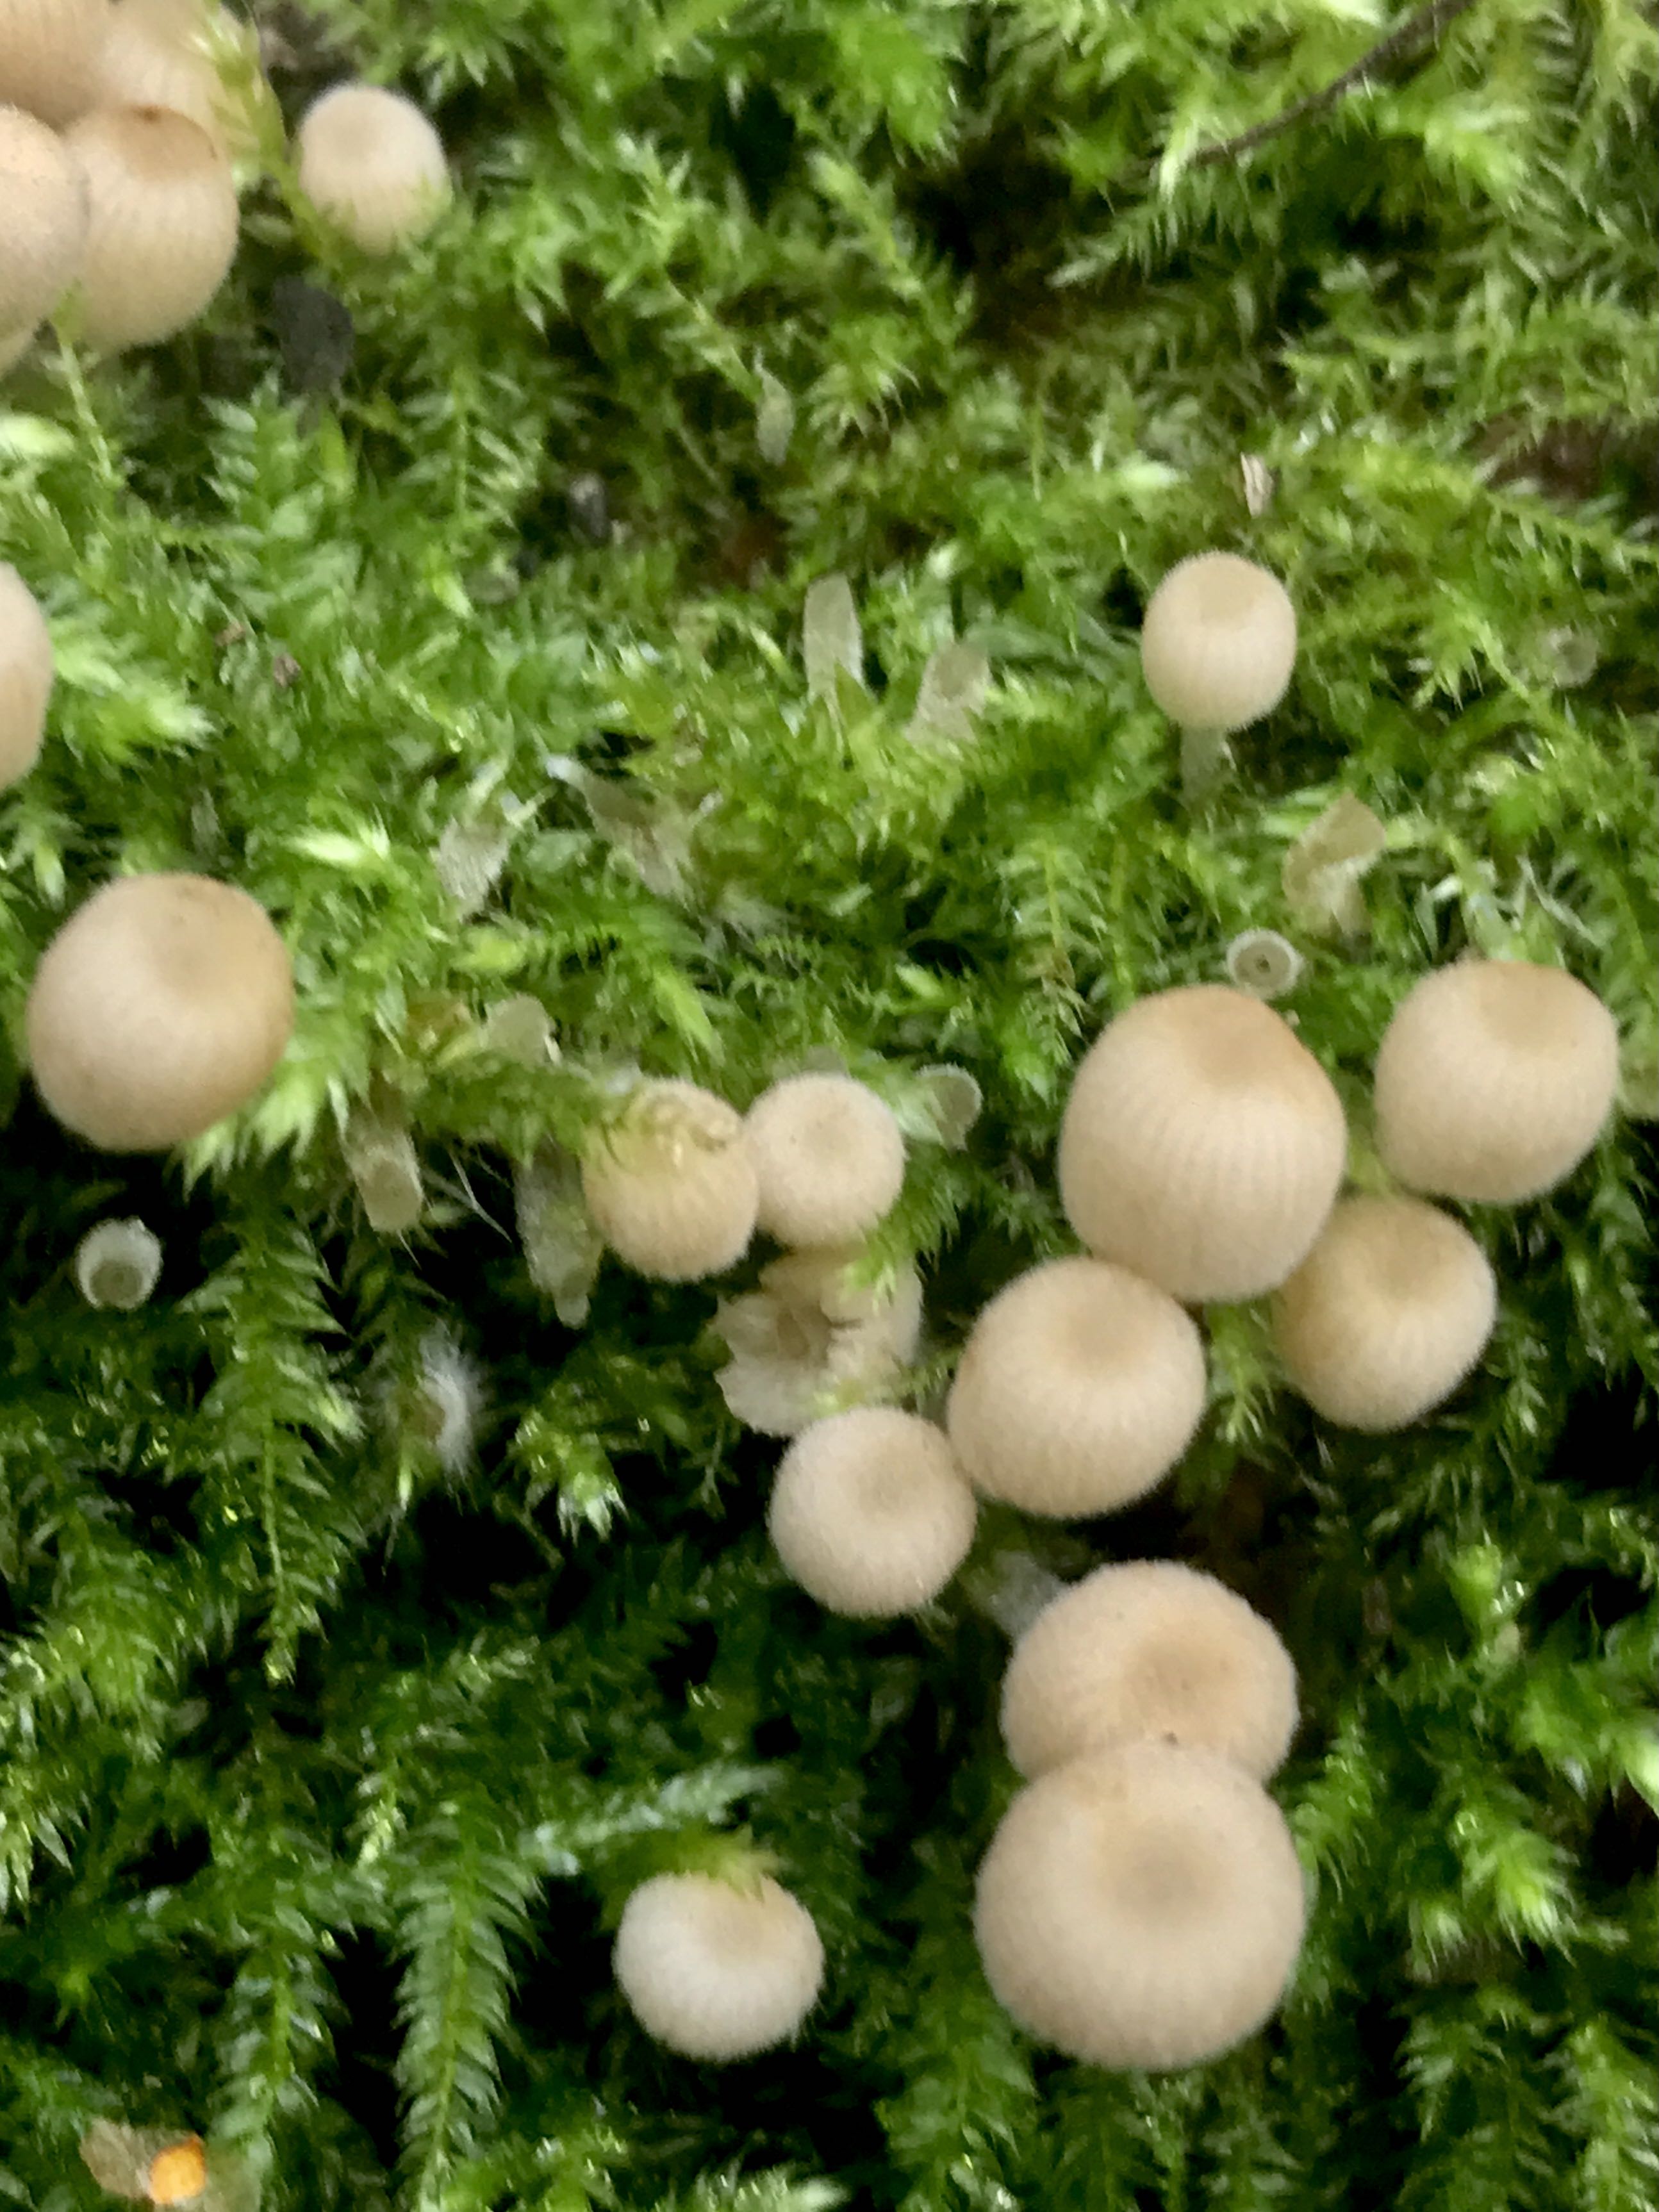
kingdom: Fungi
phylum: Basidiomycota
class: Agaricomycetes
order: Agaricales
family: Psathyrellaceae
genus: Coprinellus
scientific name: Coprinellus disseminatus
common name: bredsået blækhat
